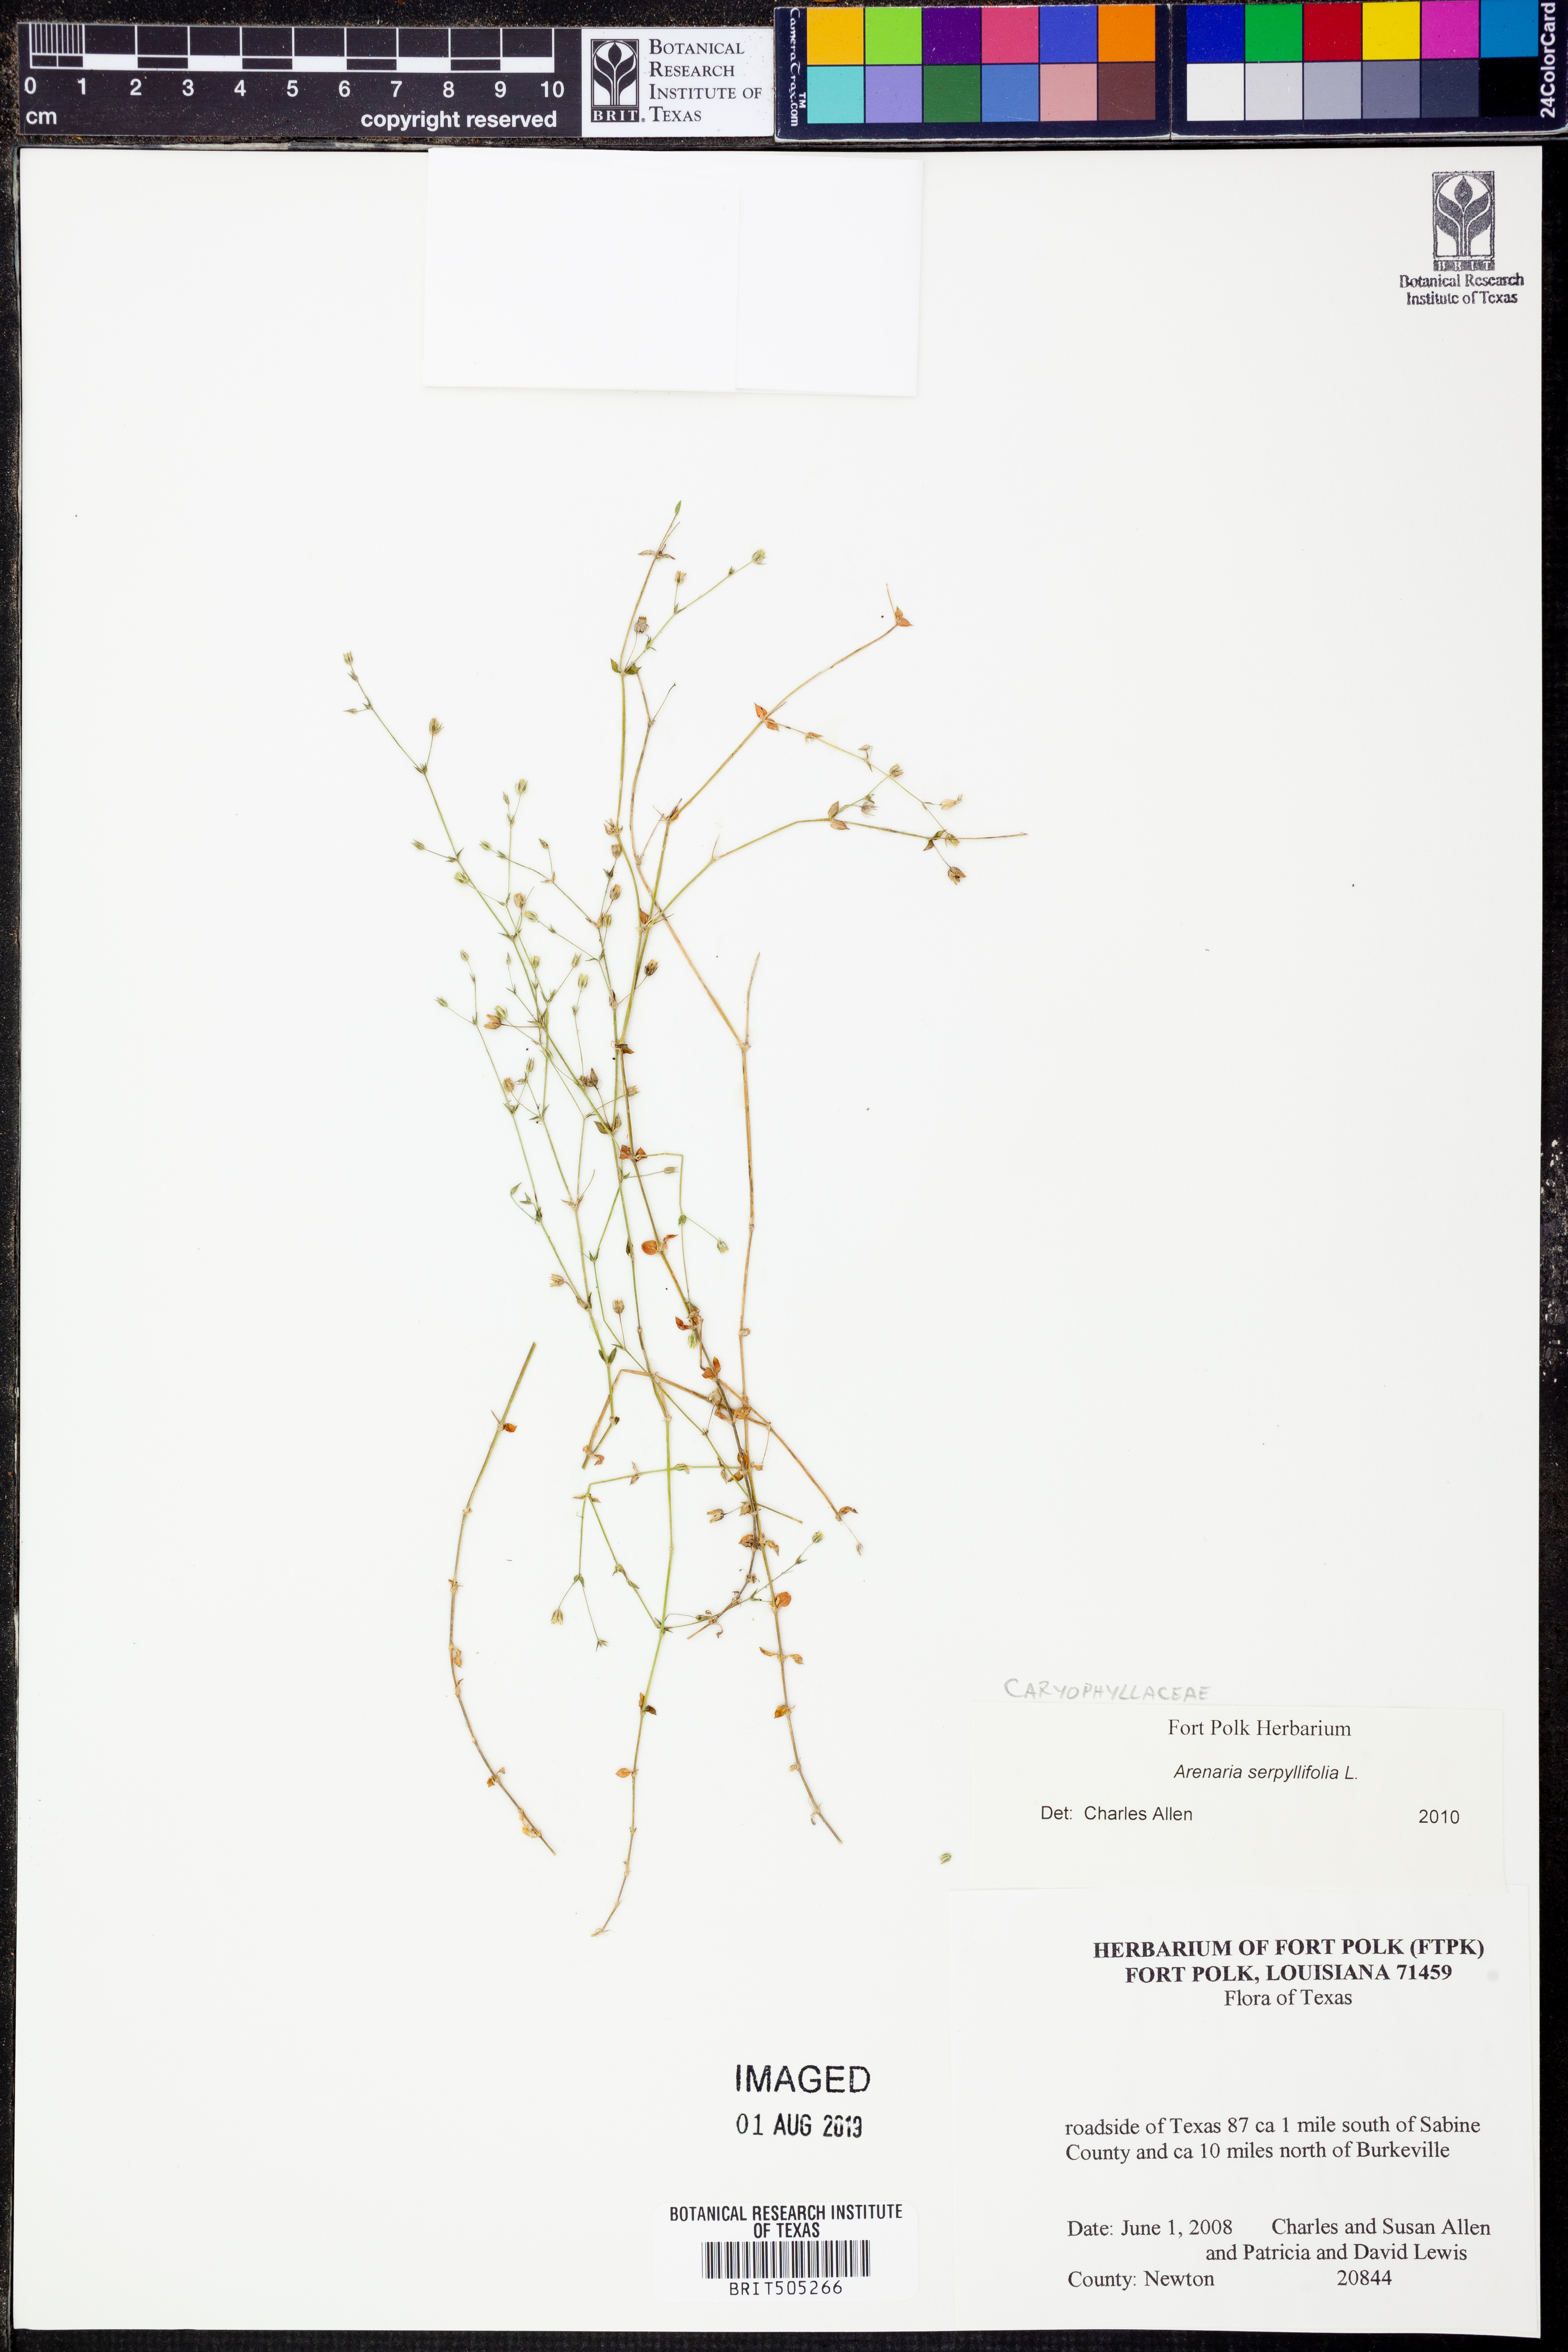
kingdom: Plantae
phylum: Tracheophyta
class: Magnoliopsida
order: Caryophyllales
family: Caryophyllaceae
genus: Arenaria
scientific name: Arenaria serpyllifolia
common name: Thyme-leaved sandwort
